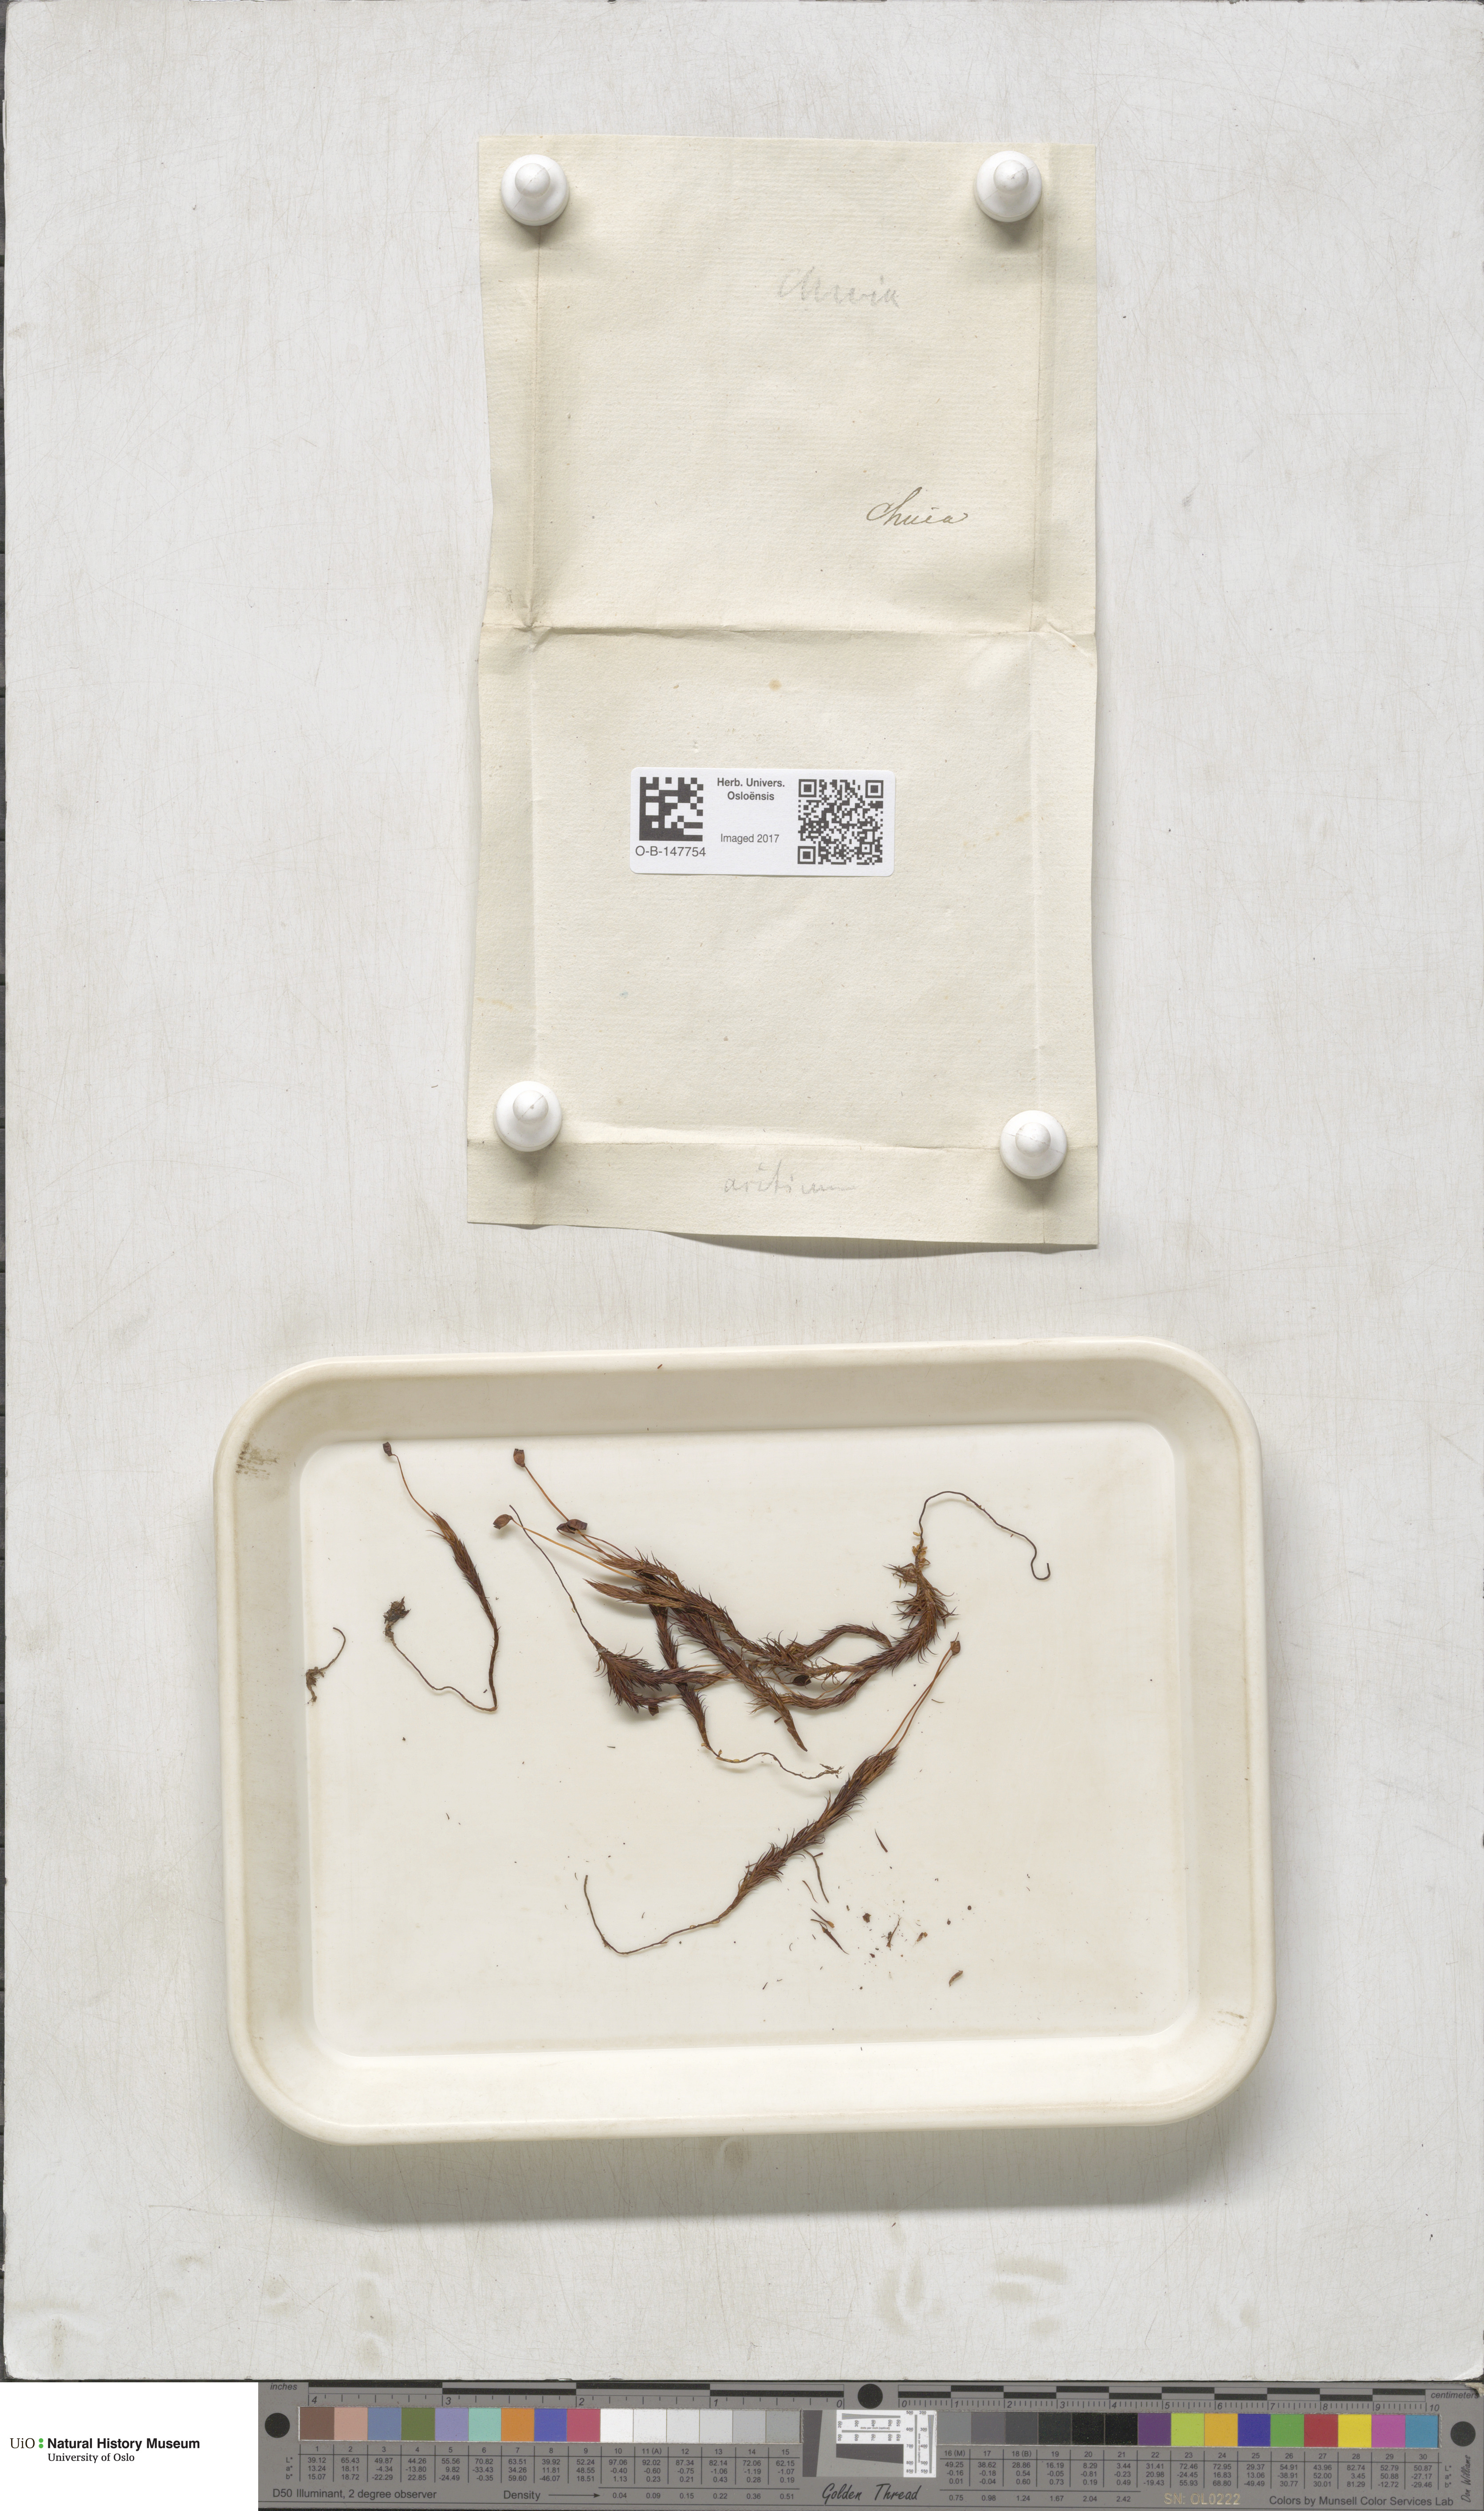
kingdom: Plantae
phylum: Bryophyta
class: Polytrichopsida
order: Polytrichales
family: Polytrichaceae
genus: Polytrichastrum
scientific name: Polytrichastrum alpinum
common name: Alpine haircap
